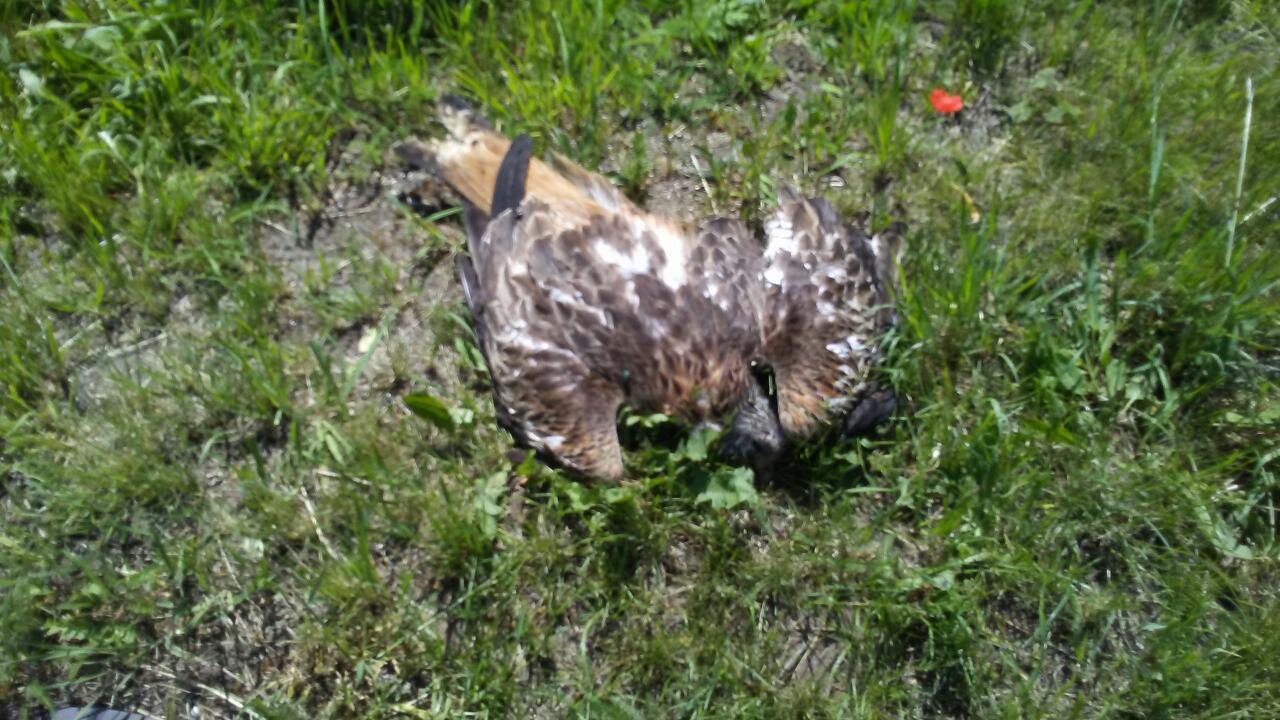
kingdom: Animalia
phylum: Chordata
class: Aves
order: Accipitriformes
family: Accipitridae
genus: Milvus
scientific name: Milvus milvus
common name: Red kite
